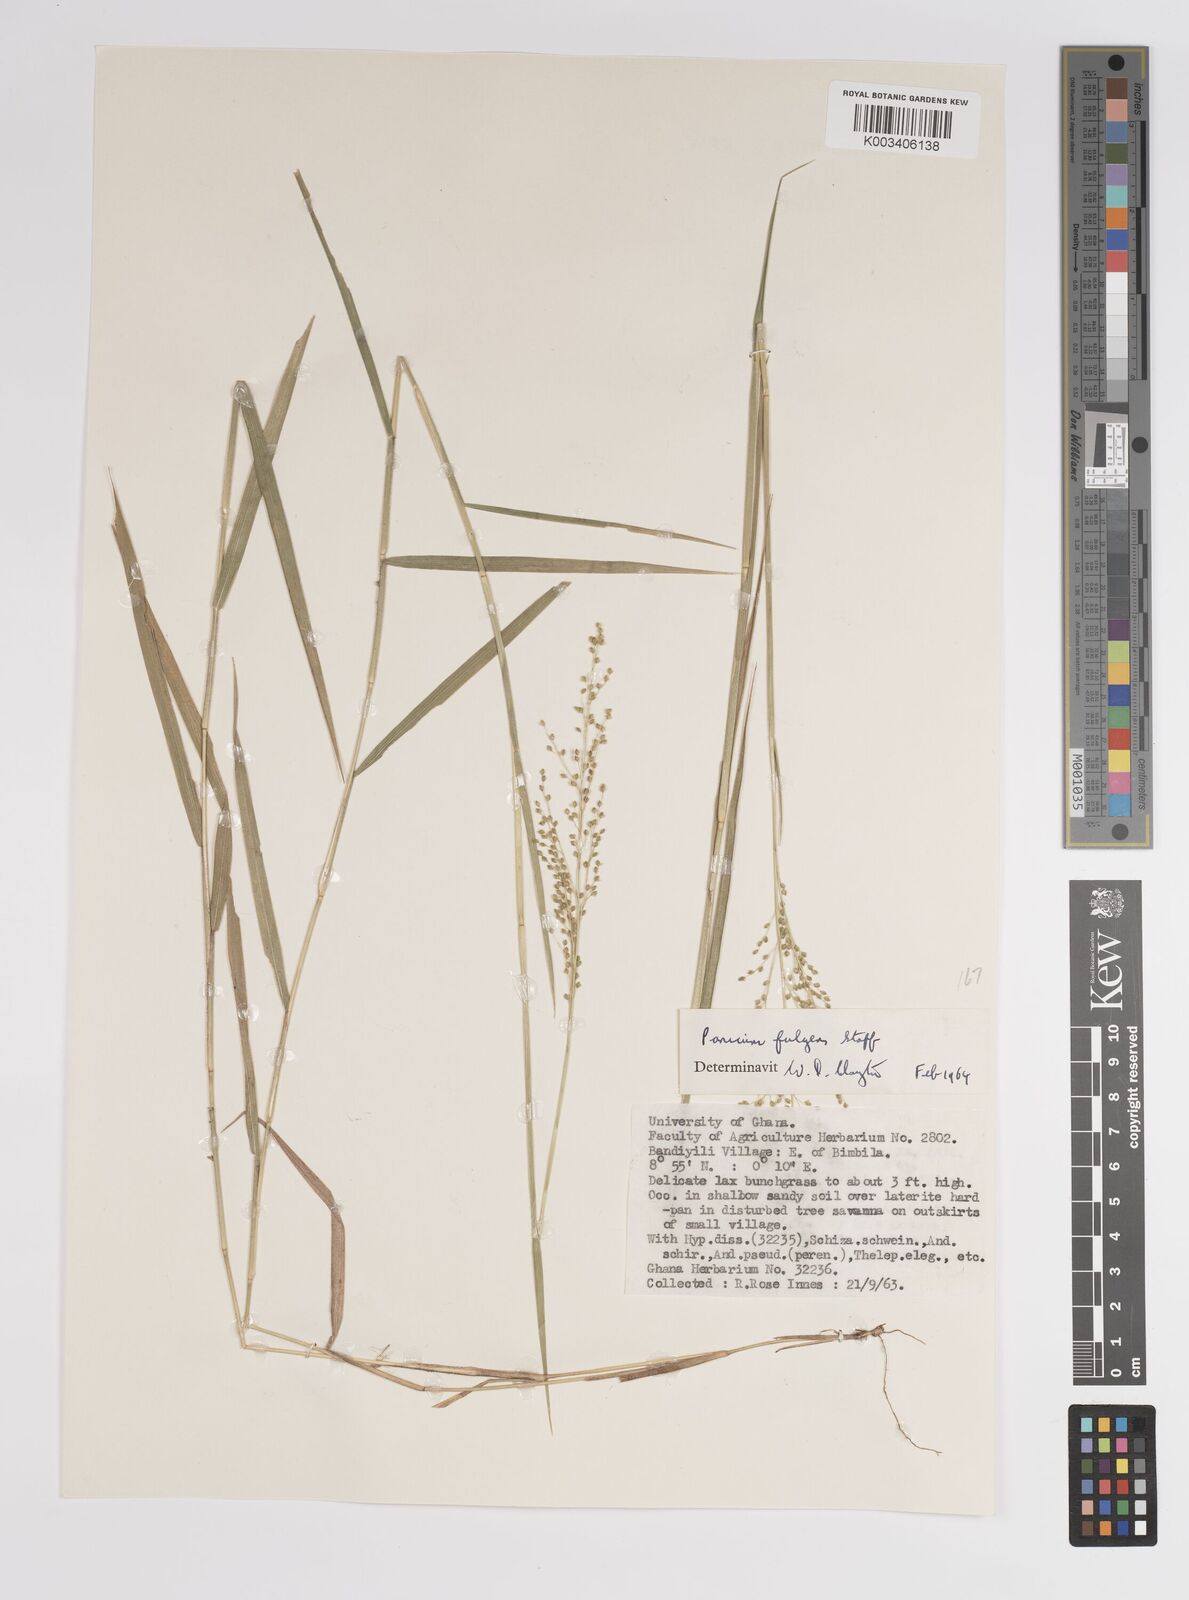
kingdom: Plantae
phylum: Tracheophyta
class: Liliopsida
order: Poales
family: Poaceae
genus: Trichanthecium
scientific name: Trichanthecium nervatum
